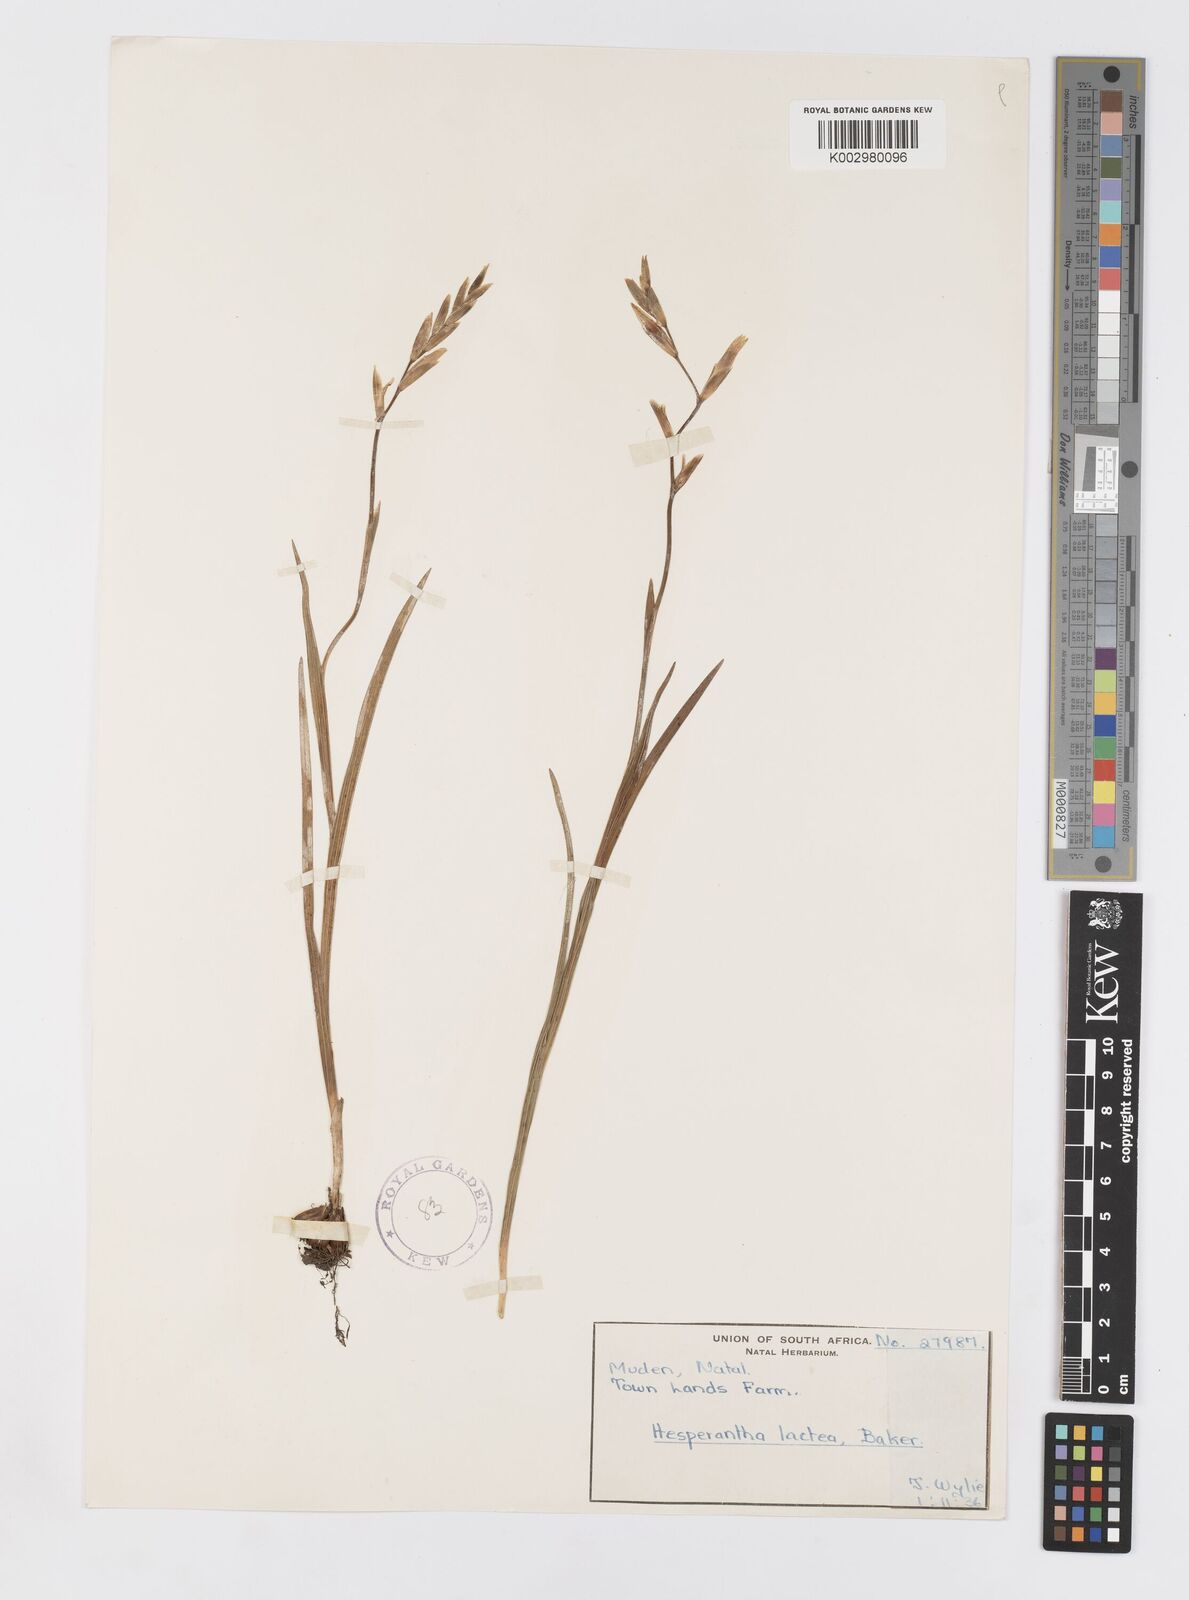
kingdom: Plantae
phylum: Tracheophyta
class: Liliopsida
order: Asparagales
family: Iridaceae
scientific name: Iridaceae
